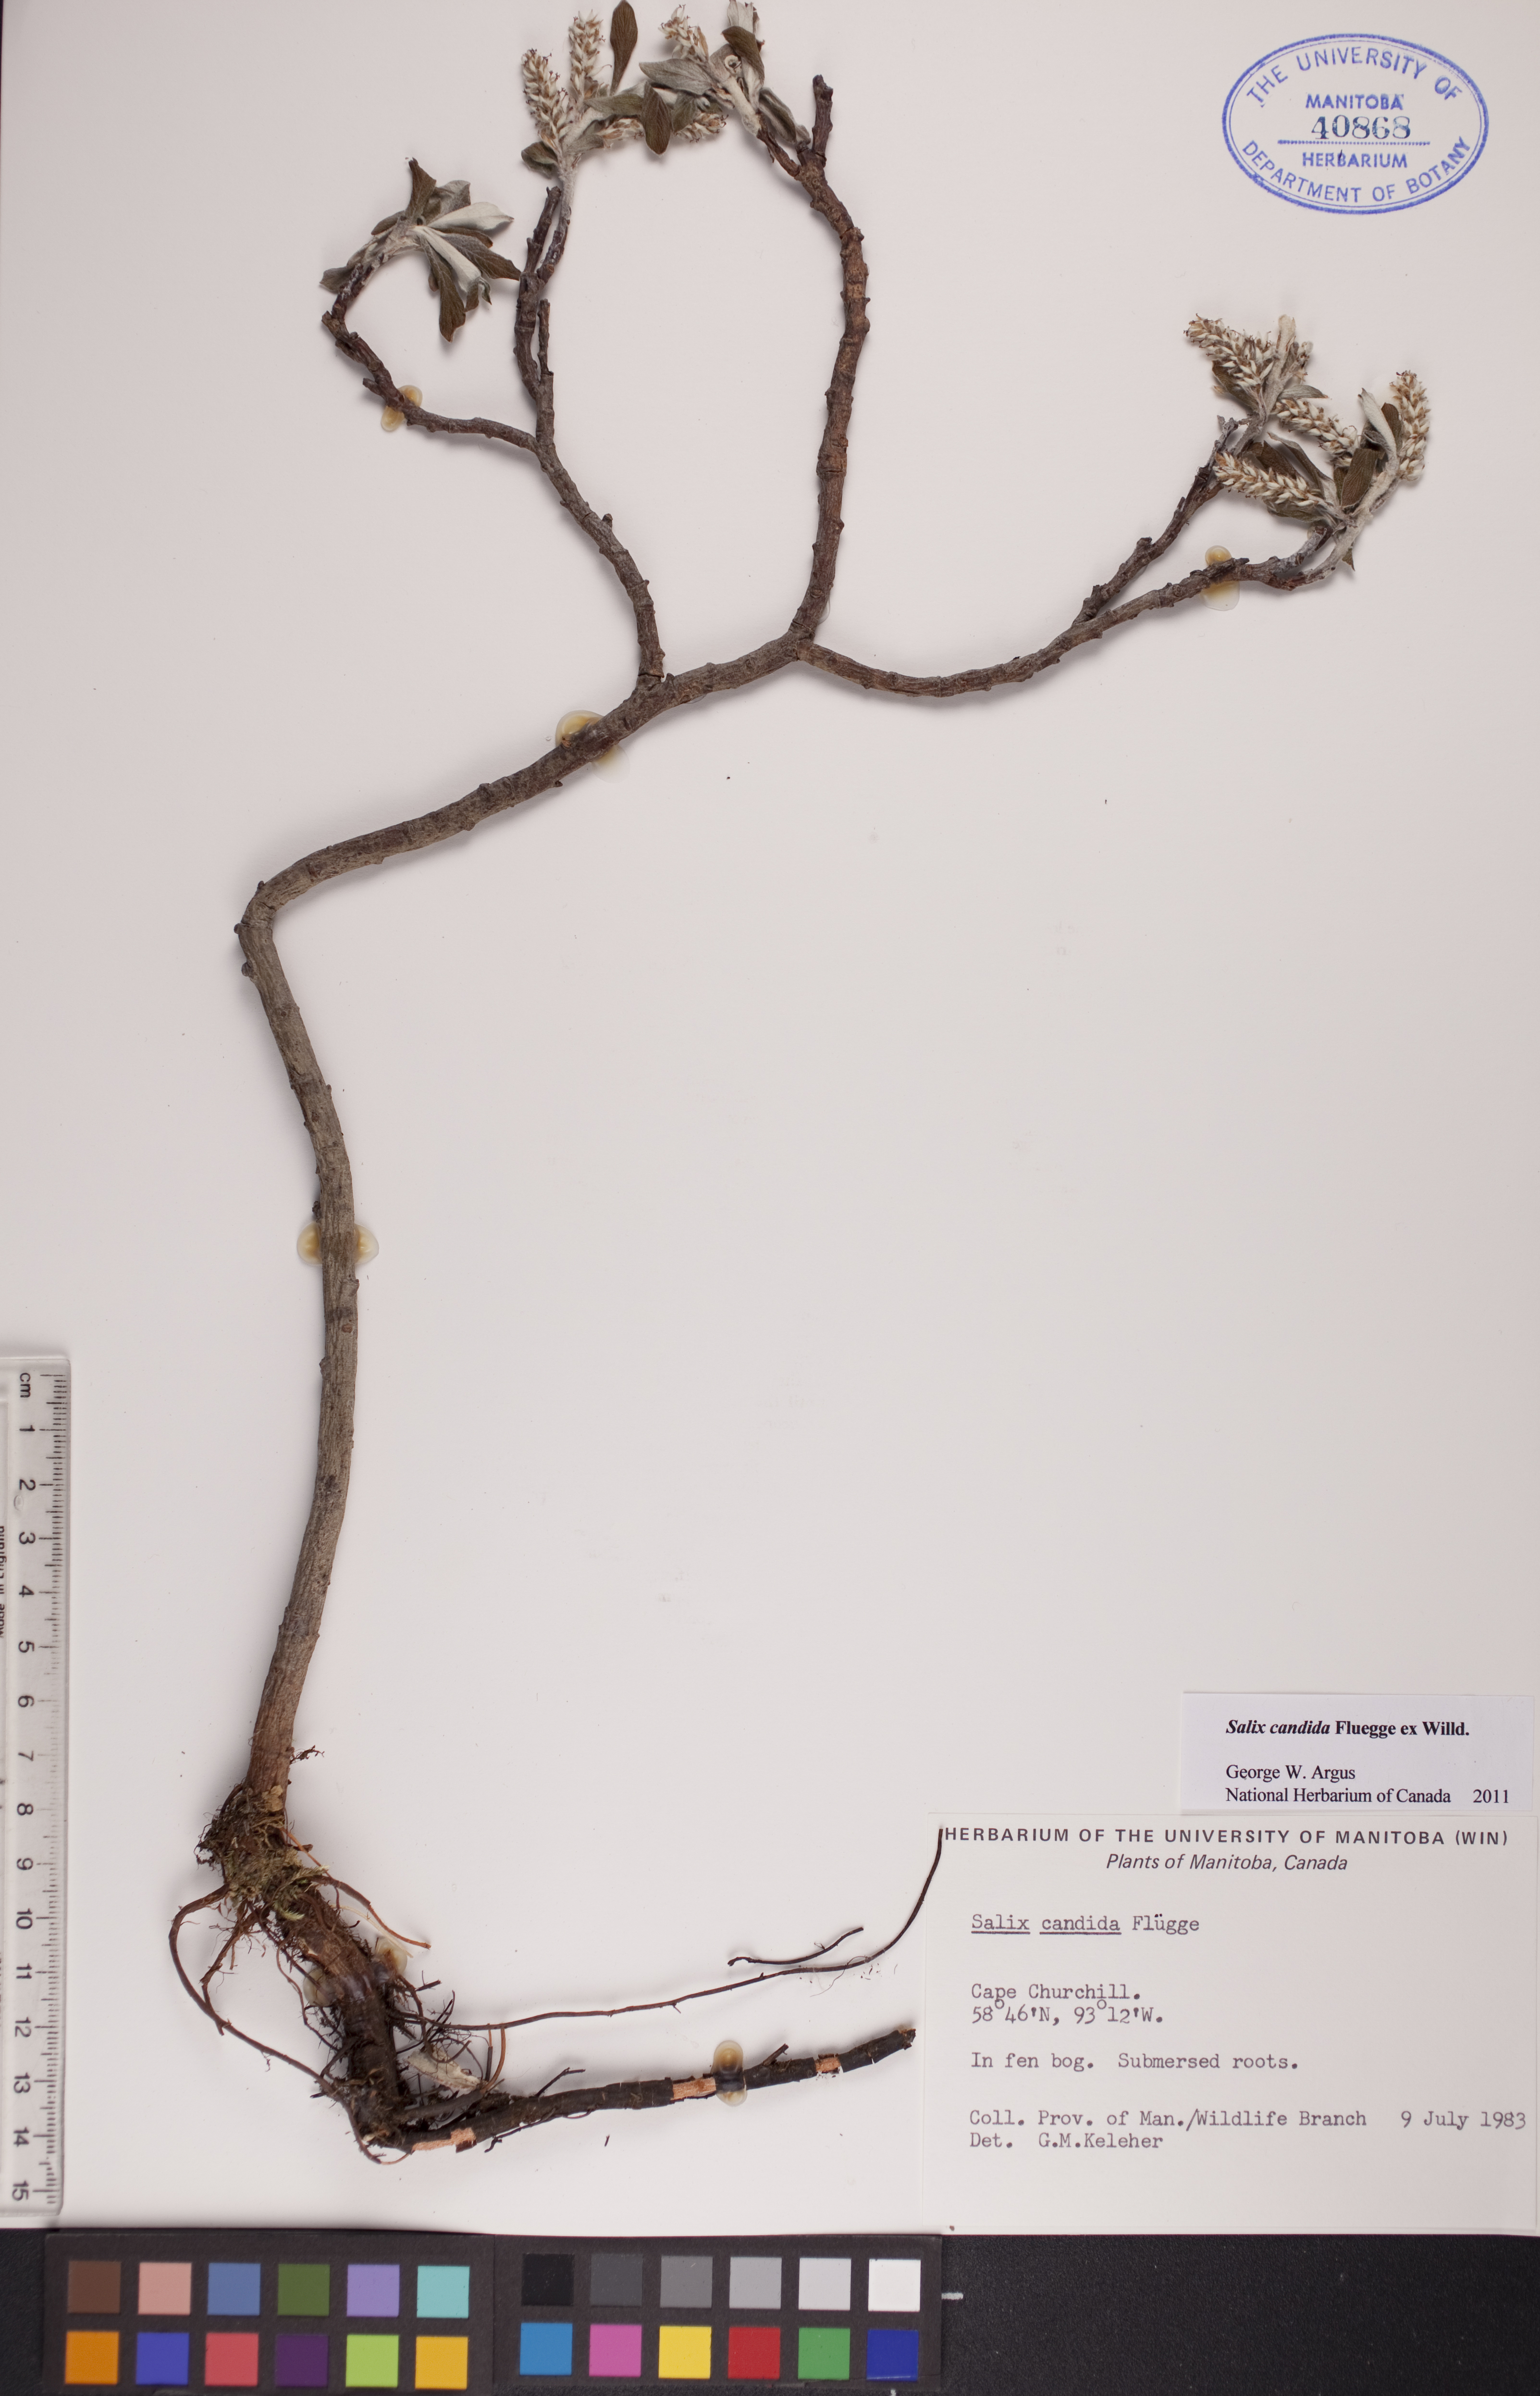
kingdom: Plantae
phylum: Tracheophyta
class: Magnoliopsida
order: Malpighiales
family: Salicaceae
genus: Salix
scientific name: Salix candida
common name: Hoary willow
